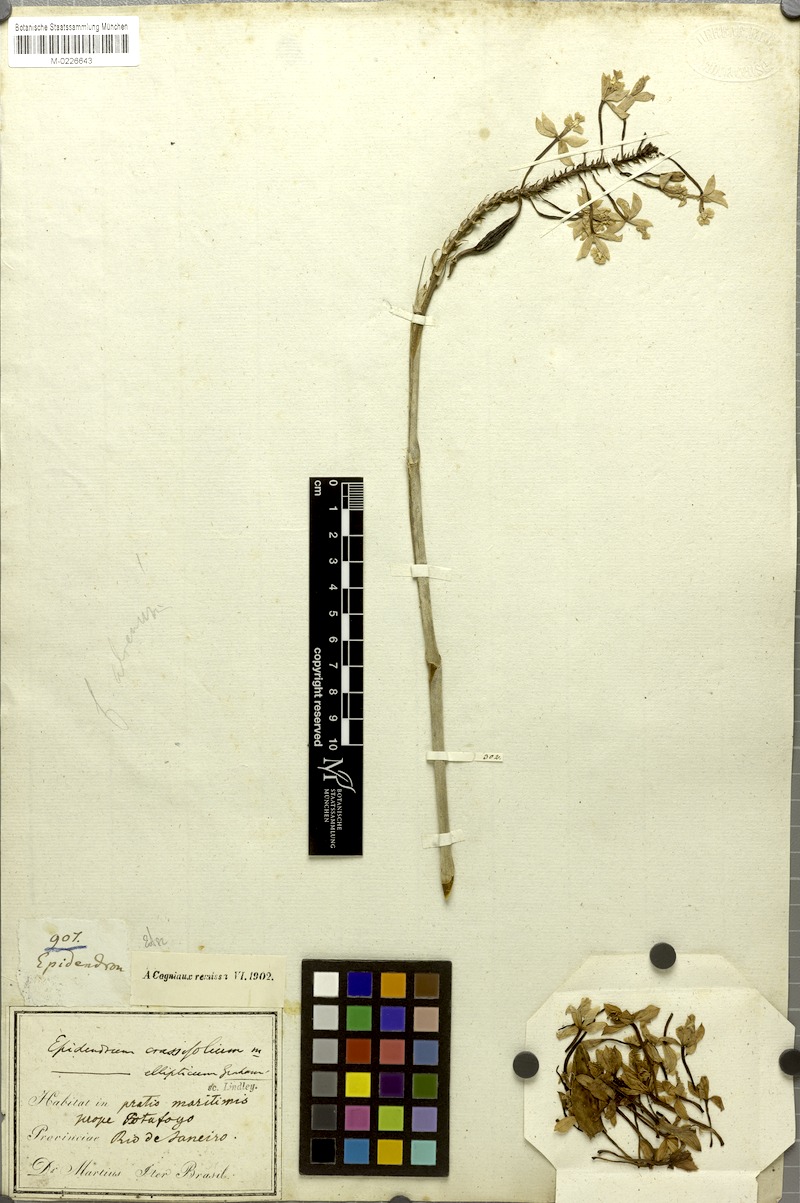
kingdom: Plantae
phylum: Tracheophyta
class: Liliopsida
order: Asparagales
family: Orchidaceae
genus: Epidendrum
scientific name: Epidendrum ellipticum
